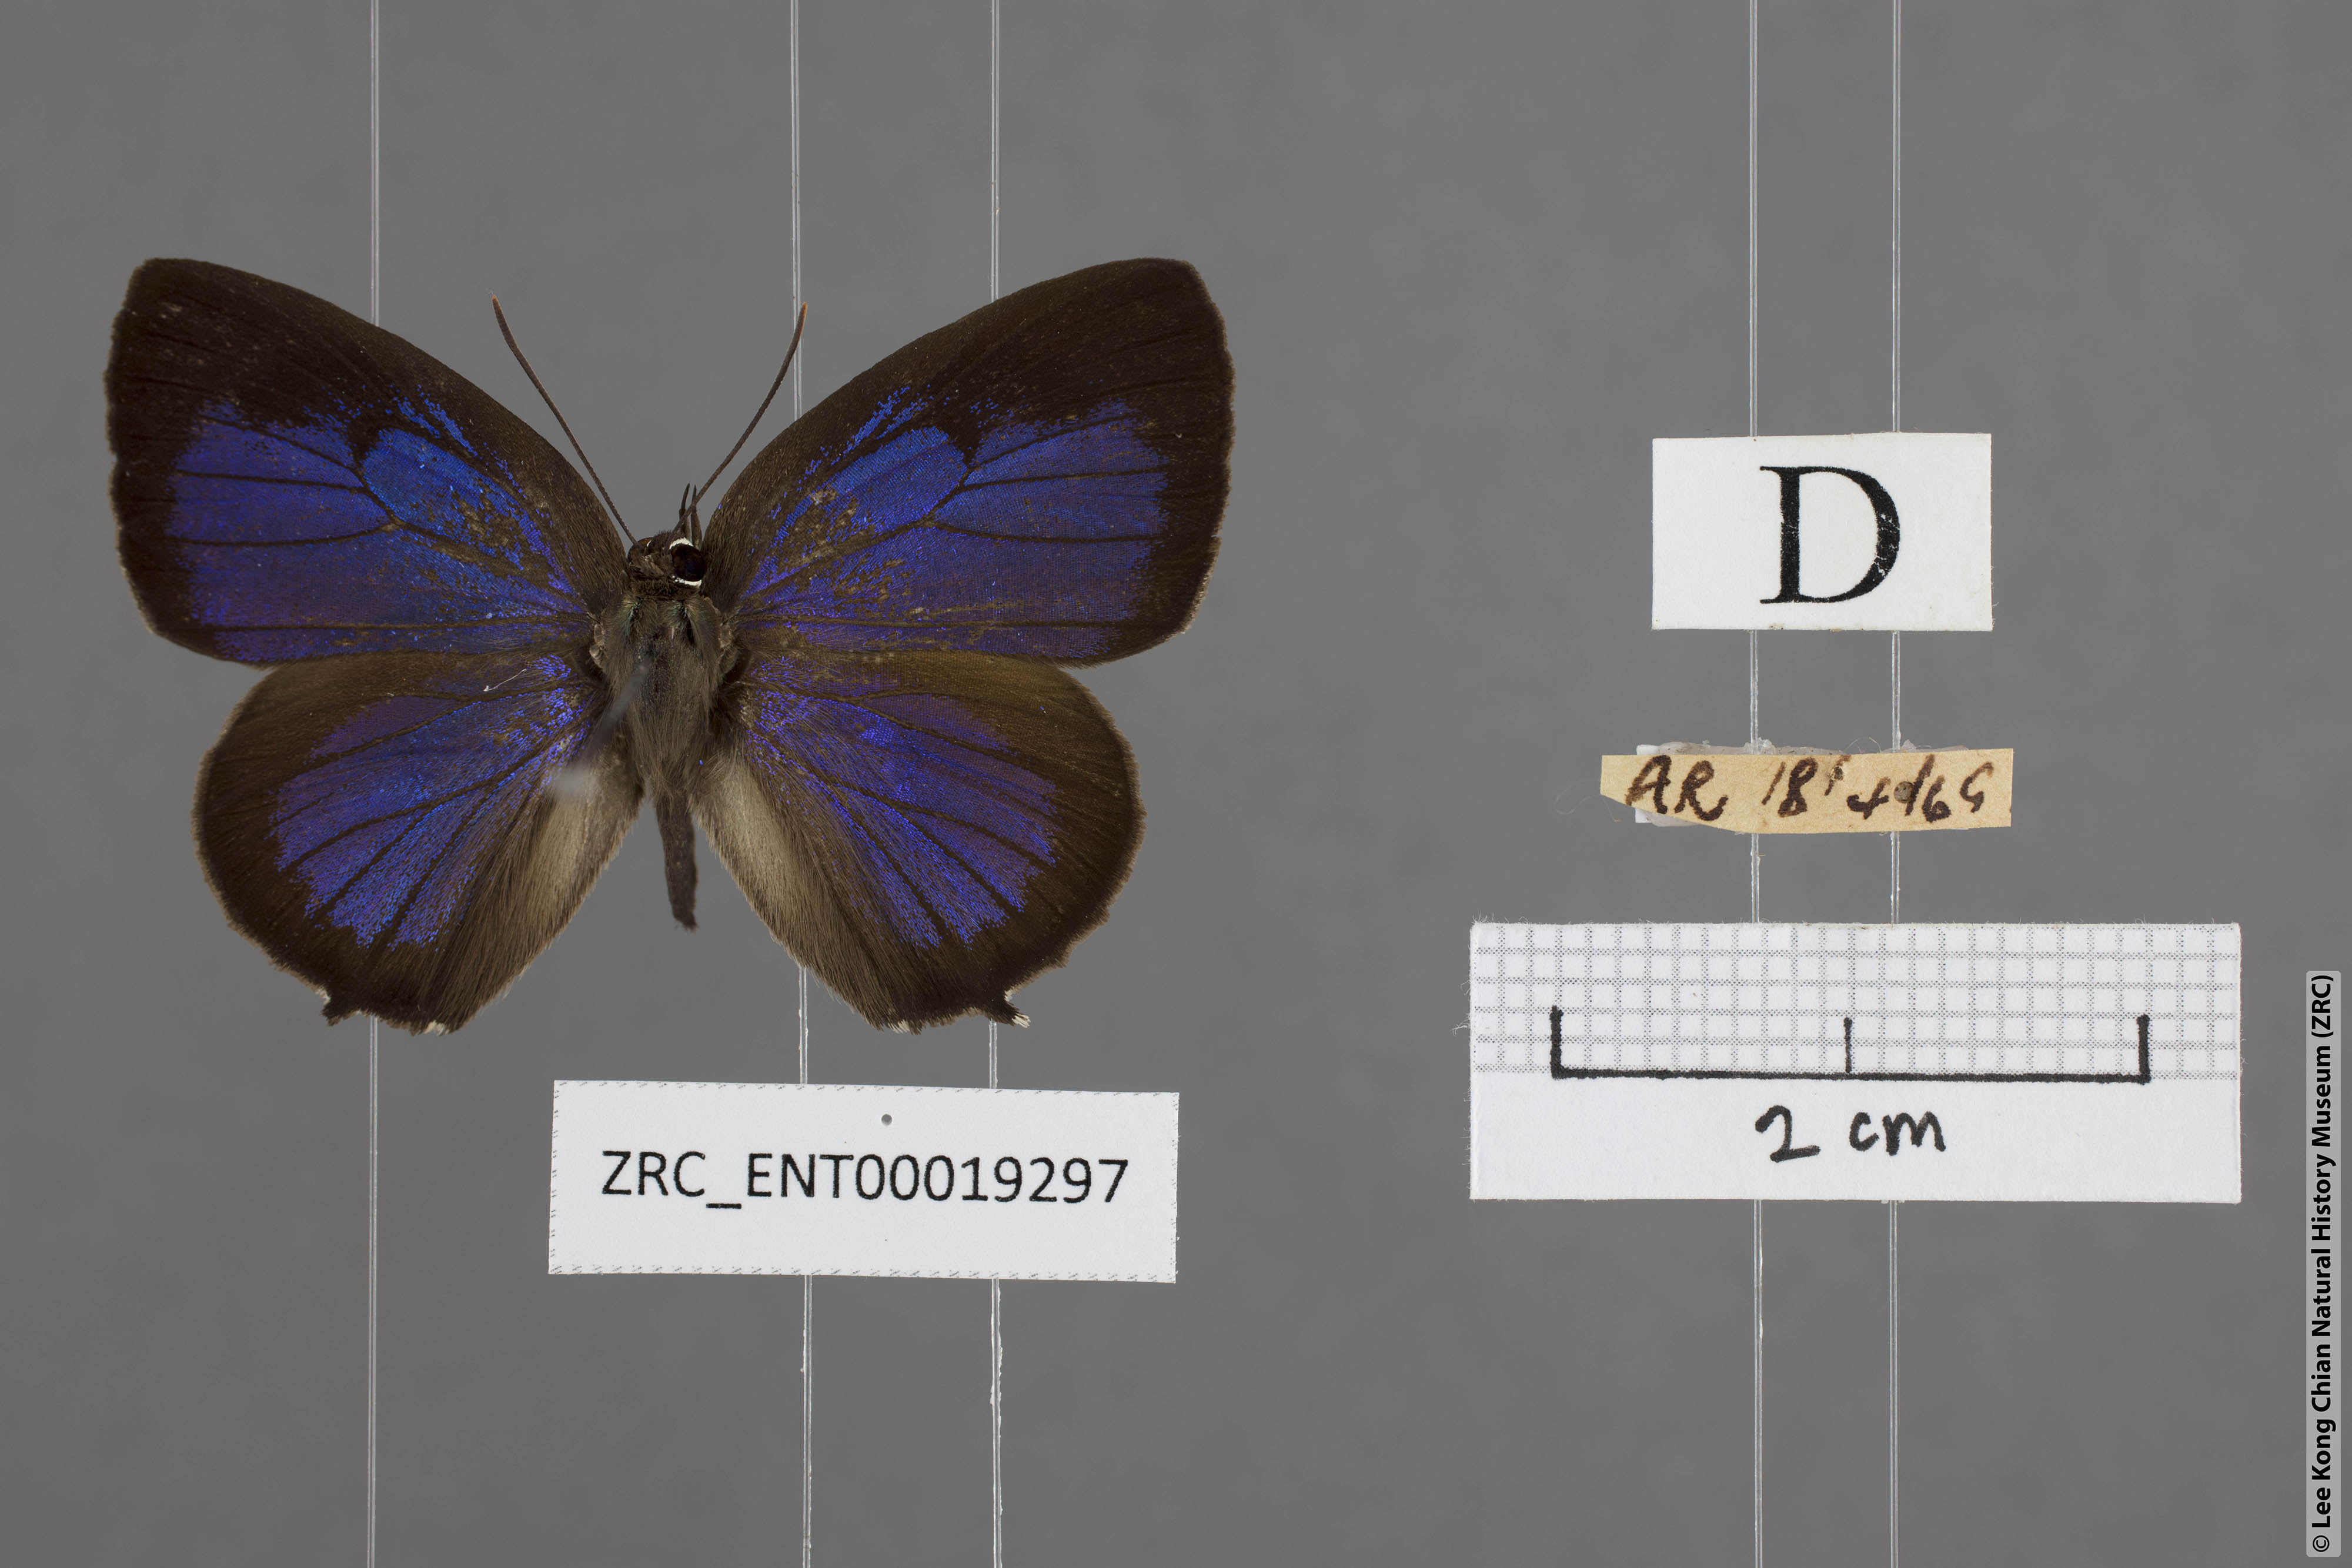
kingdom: Animalia
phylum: Arthropoda
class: Insecta
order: Lepidoptera
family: Lycaenidae
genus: Arhopala
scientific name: Arhopala aurea
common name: Long-celled oakblue
